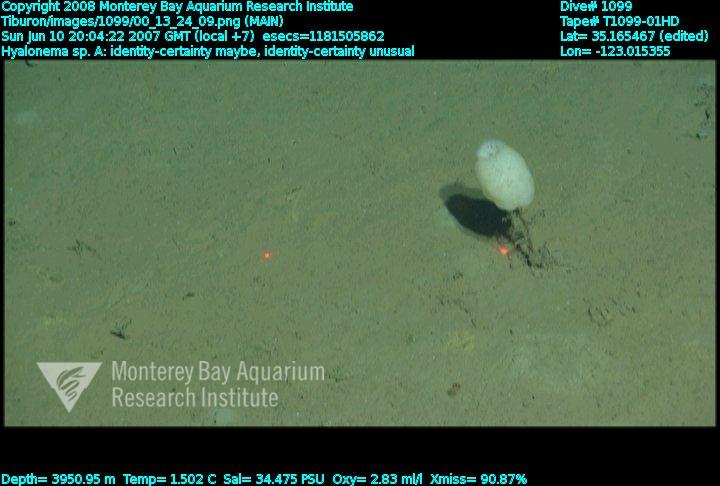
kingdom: Animalia
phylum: Porifera
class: Hexactinellida
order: Amphidiscosida
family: Hyalonematidae
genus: Hyalonema
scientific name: Hyalonema
